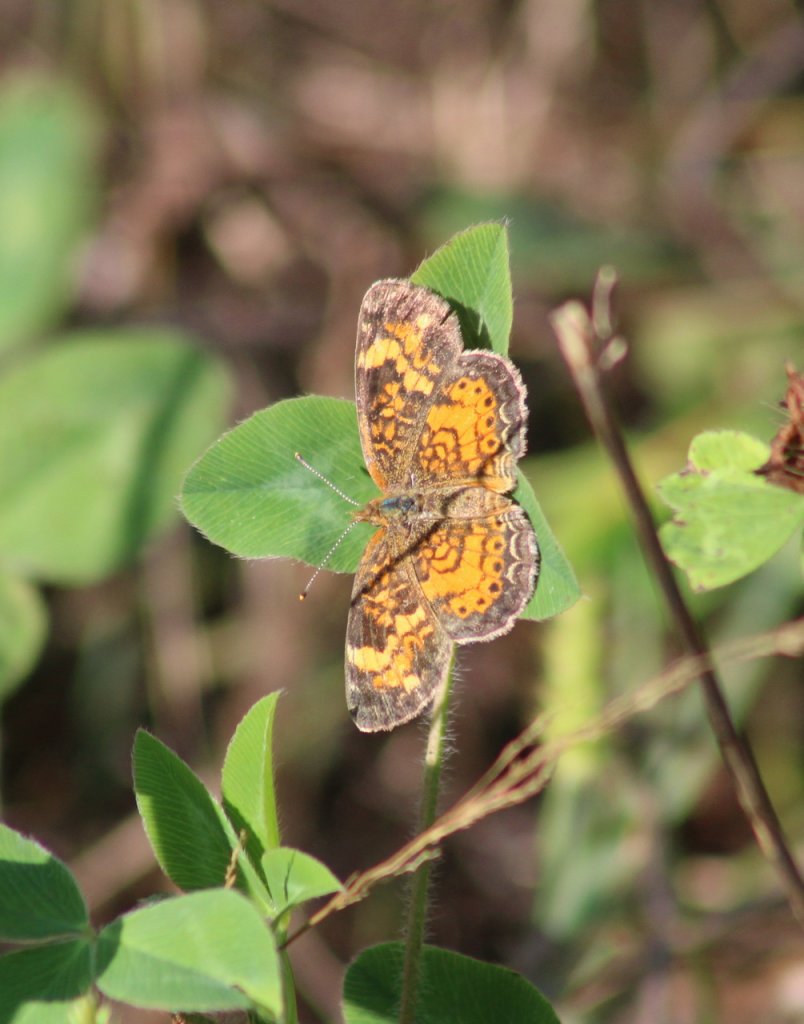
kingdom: Animalia
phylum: Arthropoda
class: Insecta
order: Lepidoptera
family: Nymphalidae
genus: Phyciodes
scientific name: Phyciodes tharos
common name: Northern Crescent
